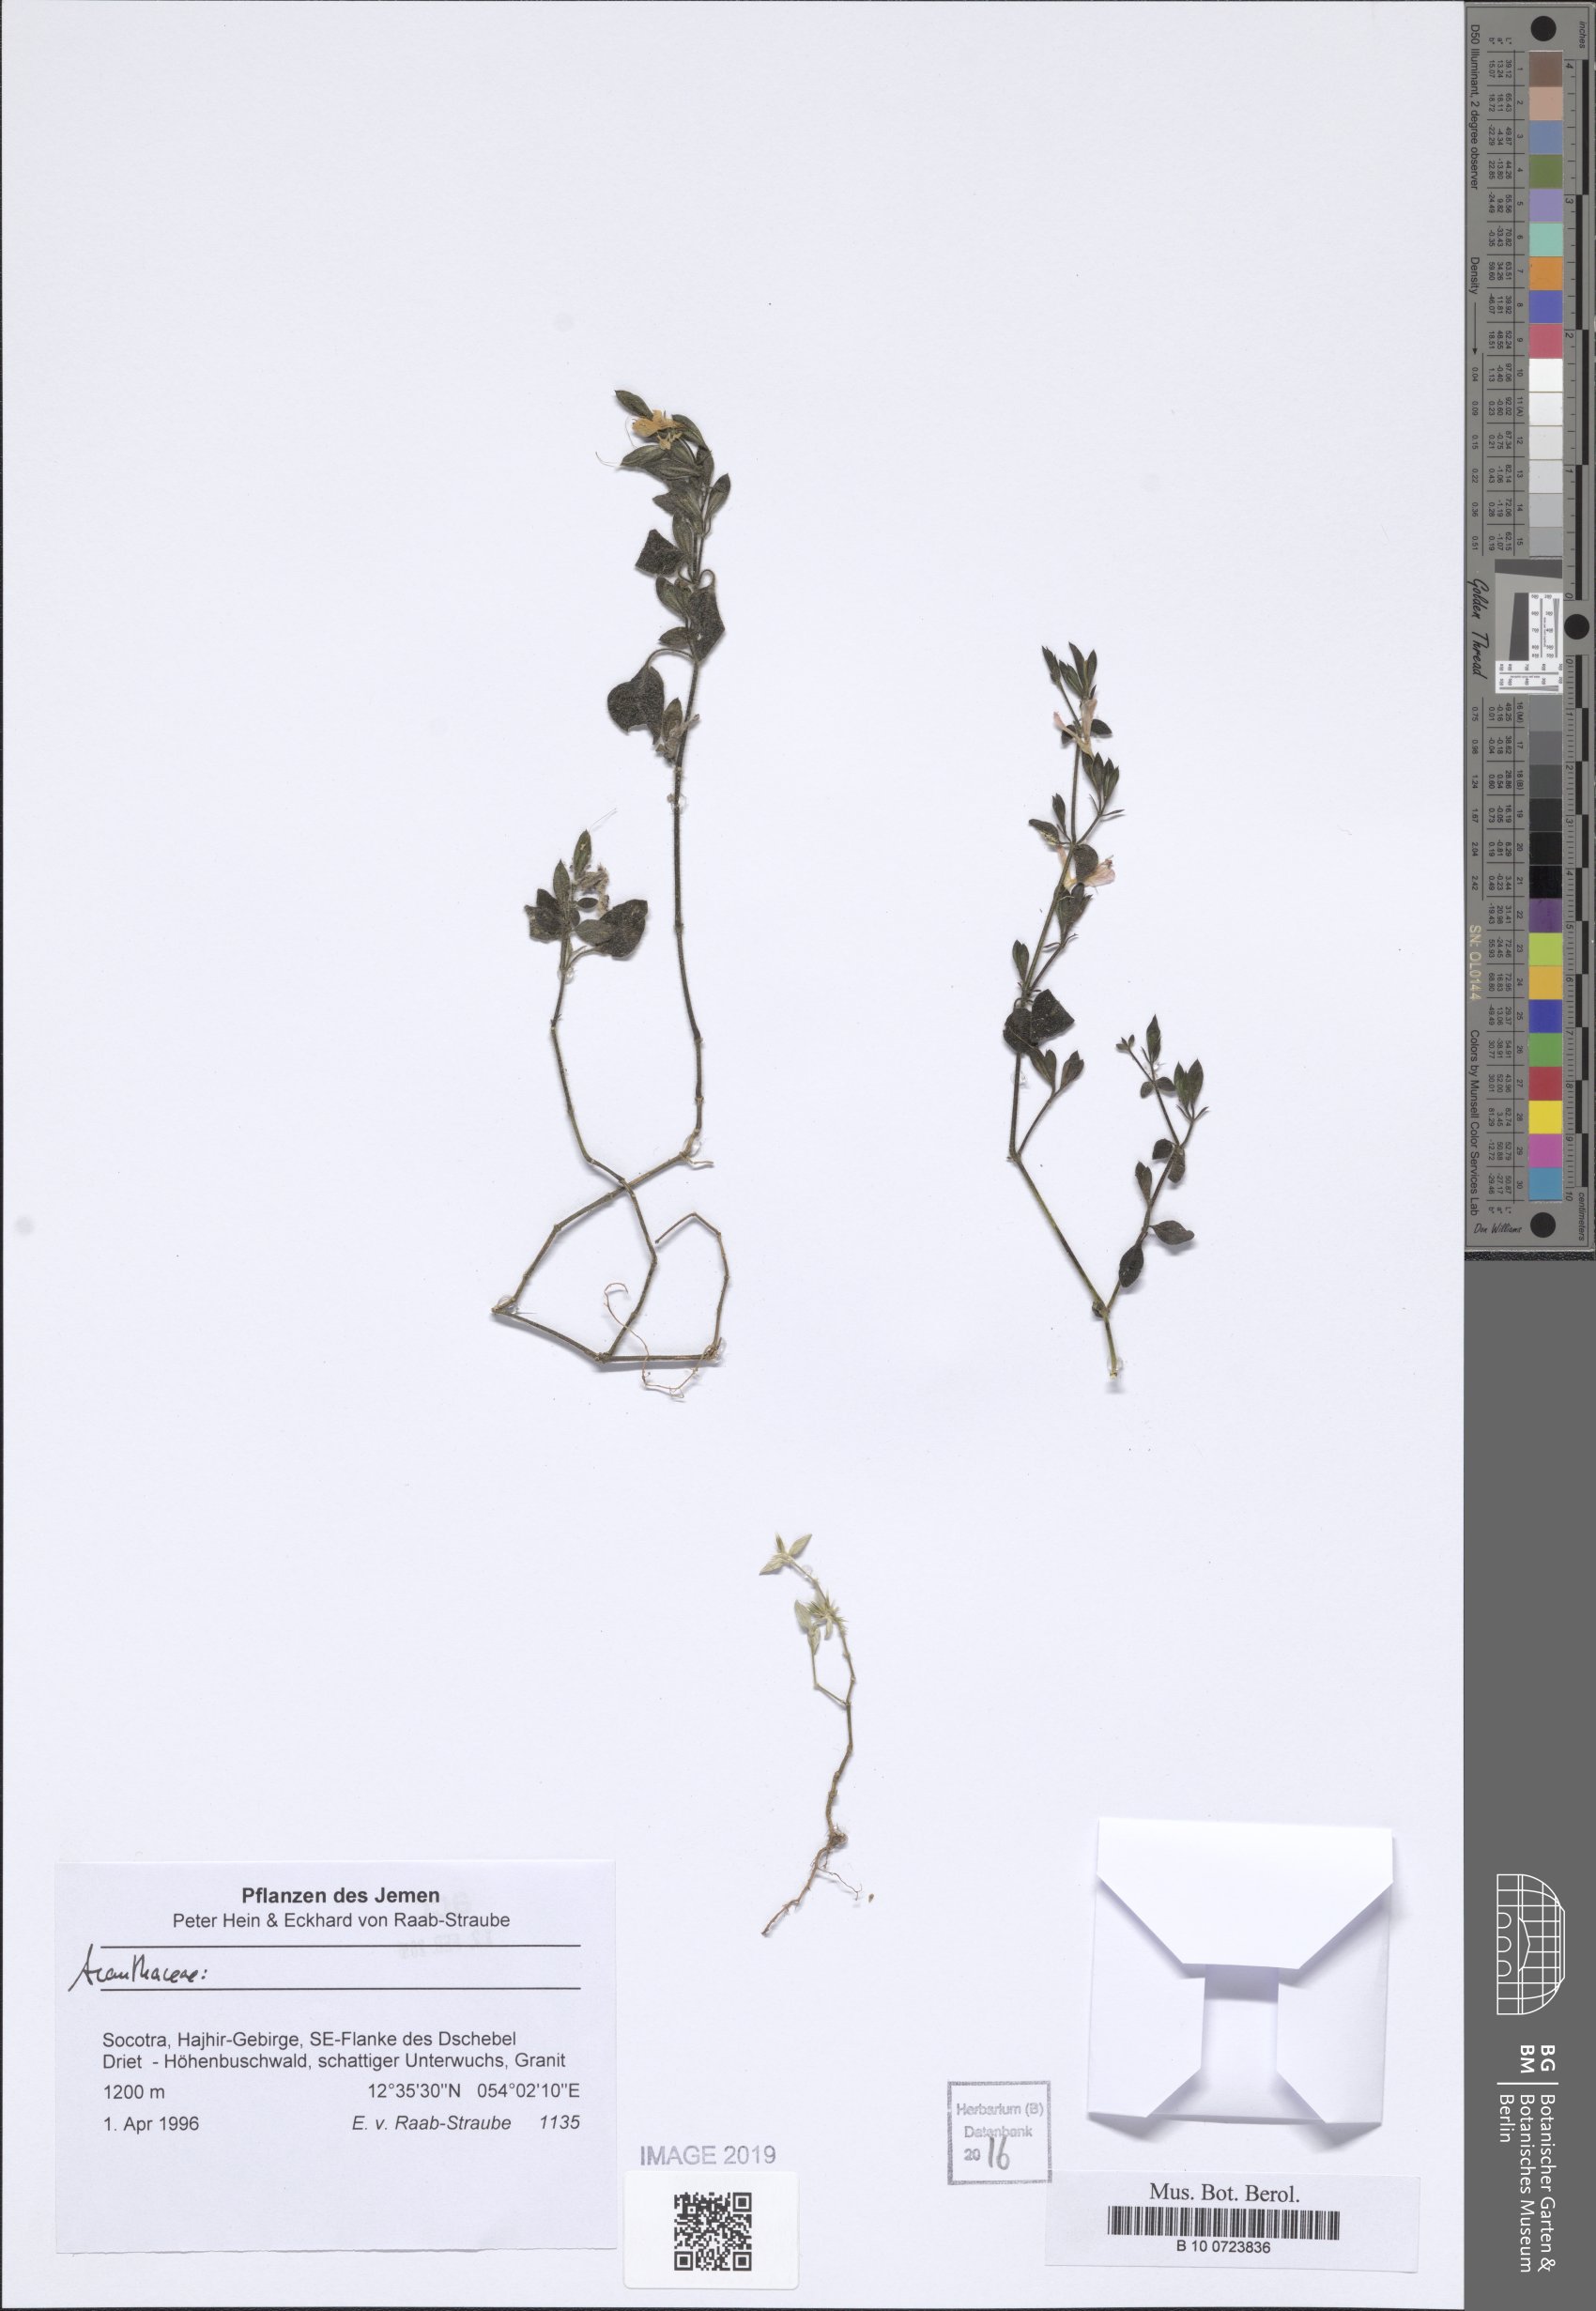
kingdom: Plantae
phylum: Tracheophyta
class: Magnoliopsida
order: Lamiales
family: Acanthaceae
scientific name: Acanthaceae
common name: Acanthaceae
